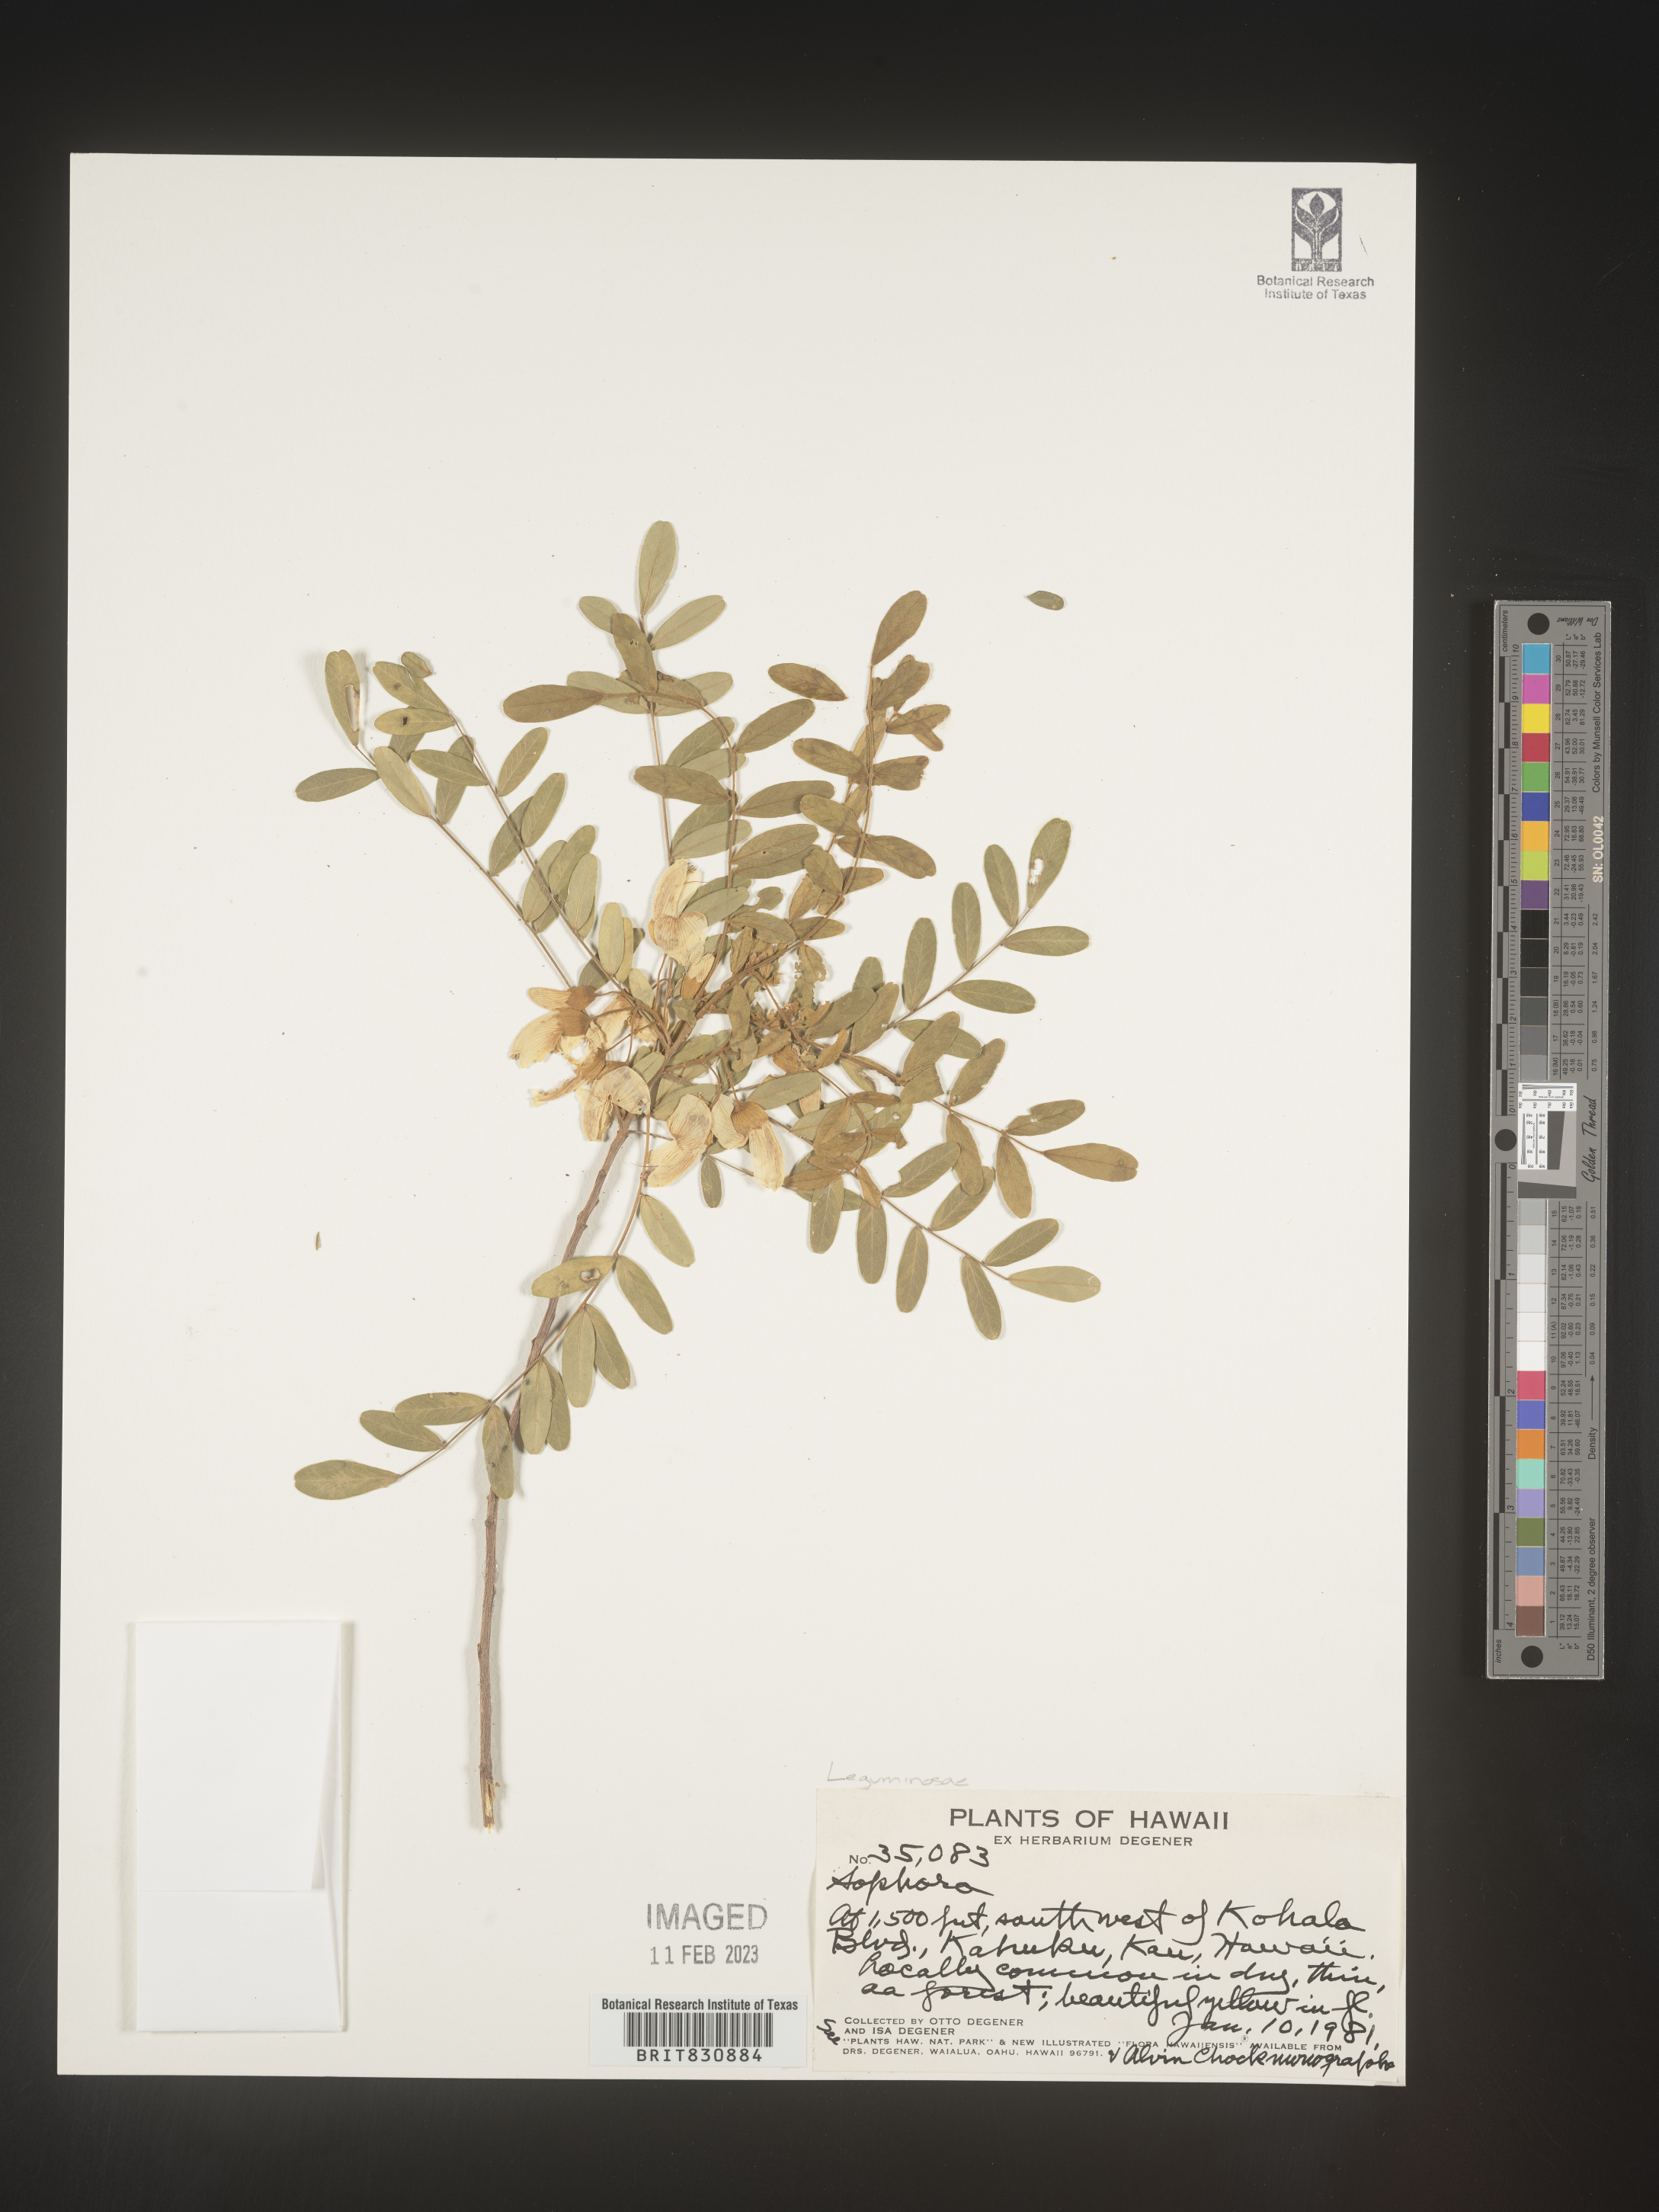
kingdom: Plantae
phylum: Tracheophyta
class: Magnoliopsida
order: Fabales
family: Fabaceae
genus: Sophora
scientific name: Sophora
